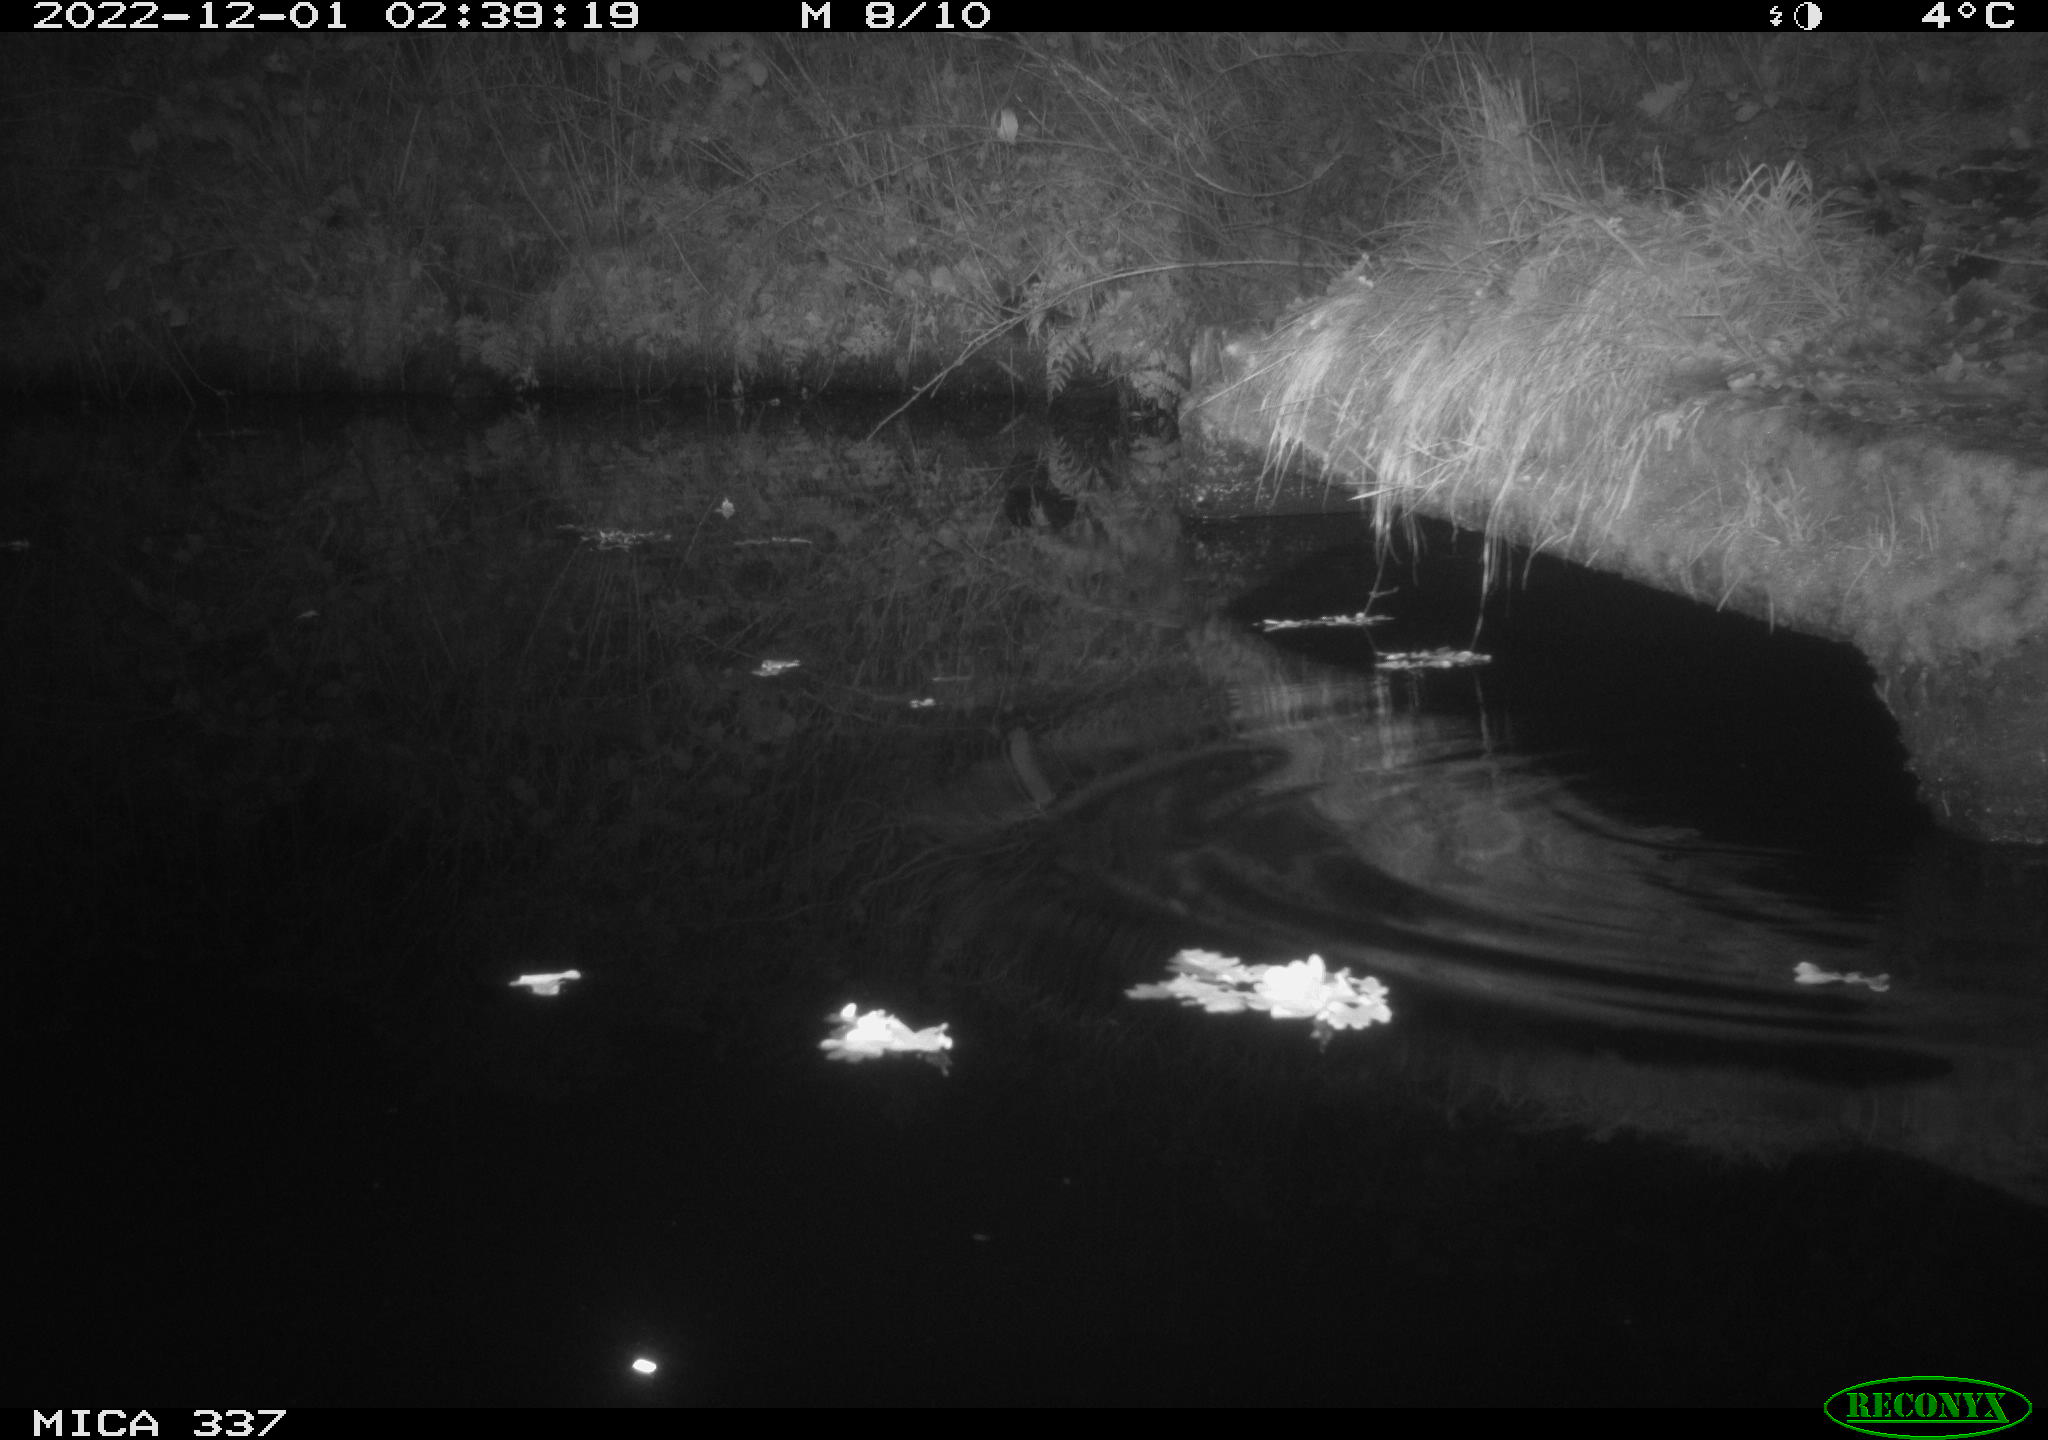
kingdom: Animalia
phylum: Chordata
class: Mammalia
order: Rodentia
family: Muridae
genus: Rattus
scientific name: Rattus norvegicus
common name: Brown rat
